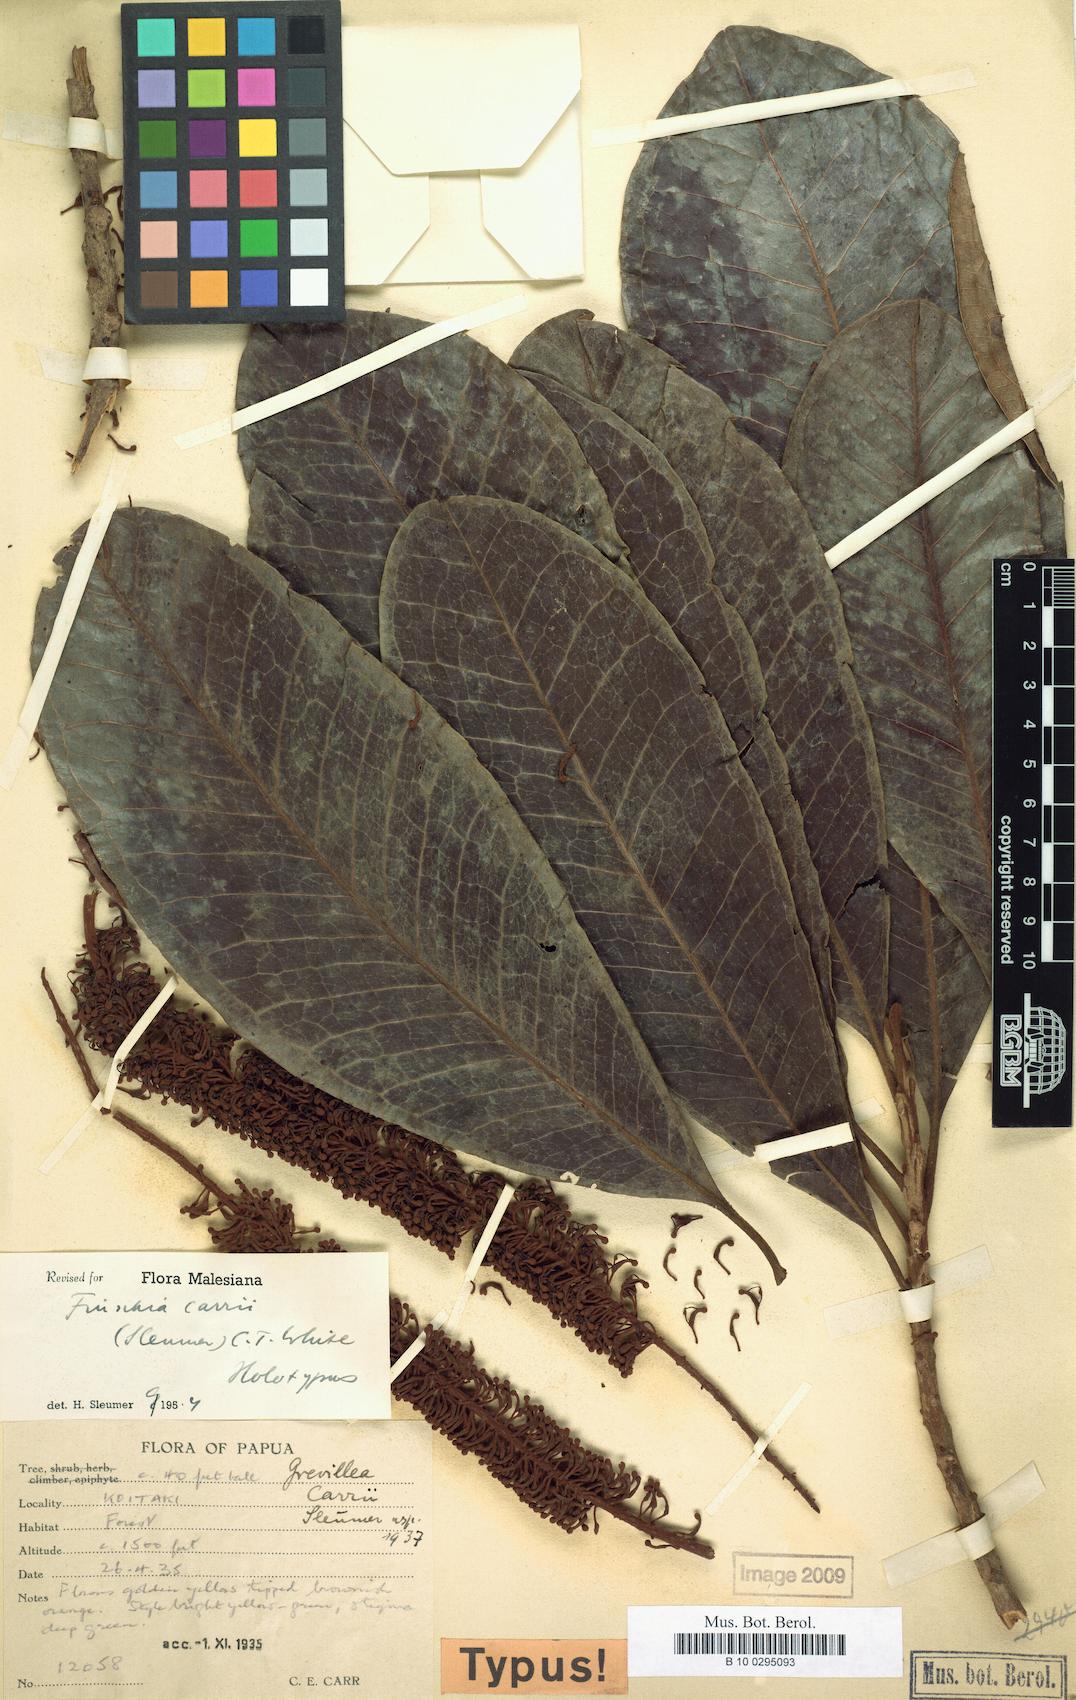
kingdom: Plantae
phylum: Tracheophyta
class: Magnoliopsida
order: Proteales
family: Proteaceae
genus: Finschia
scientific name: Finschia rufa
